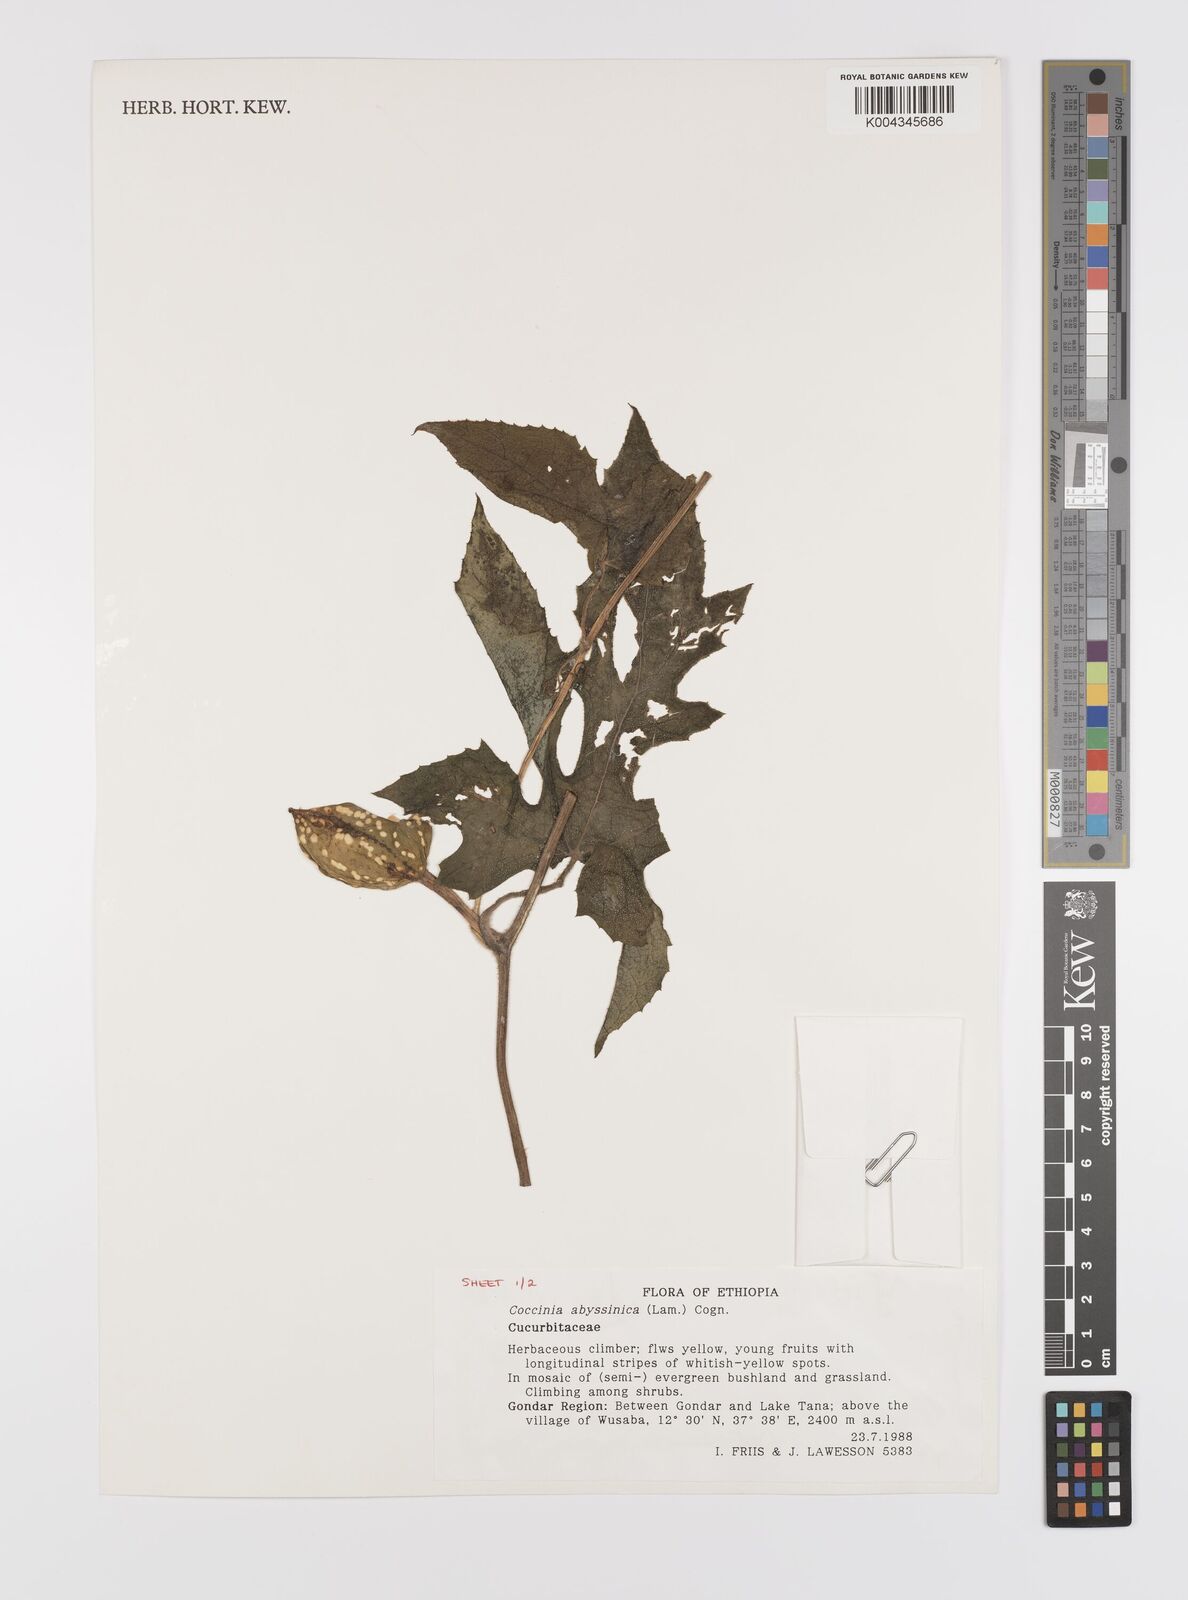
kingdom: Plantae
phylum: Tracheophyta
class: Magnoliopsida
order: Cucurbitales
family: Cucurbitaceae
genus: Coccinia
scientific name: Coccinia abyssinica
